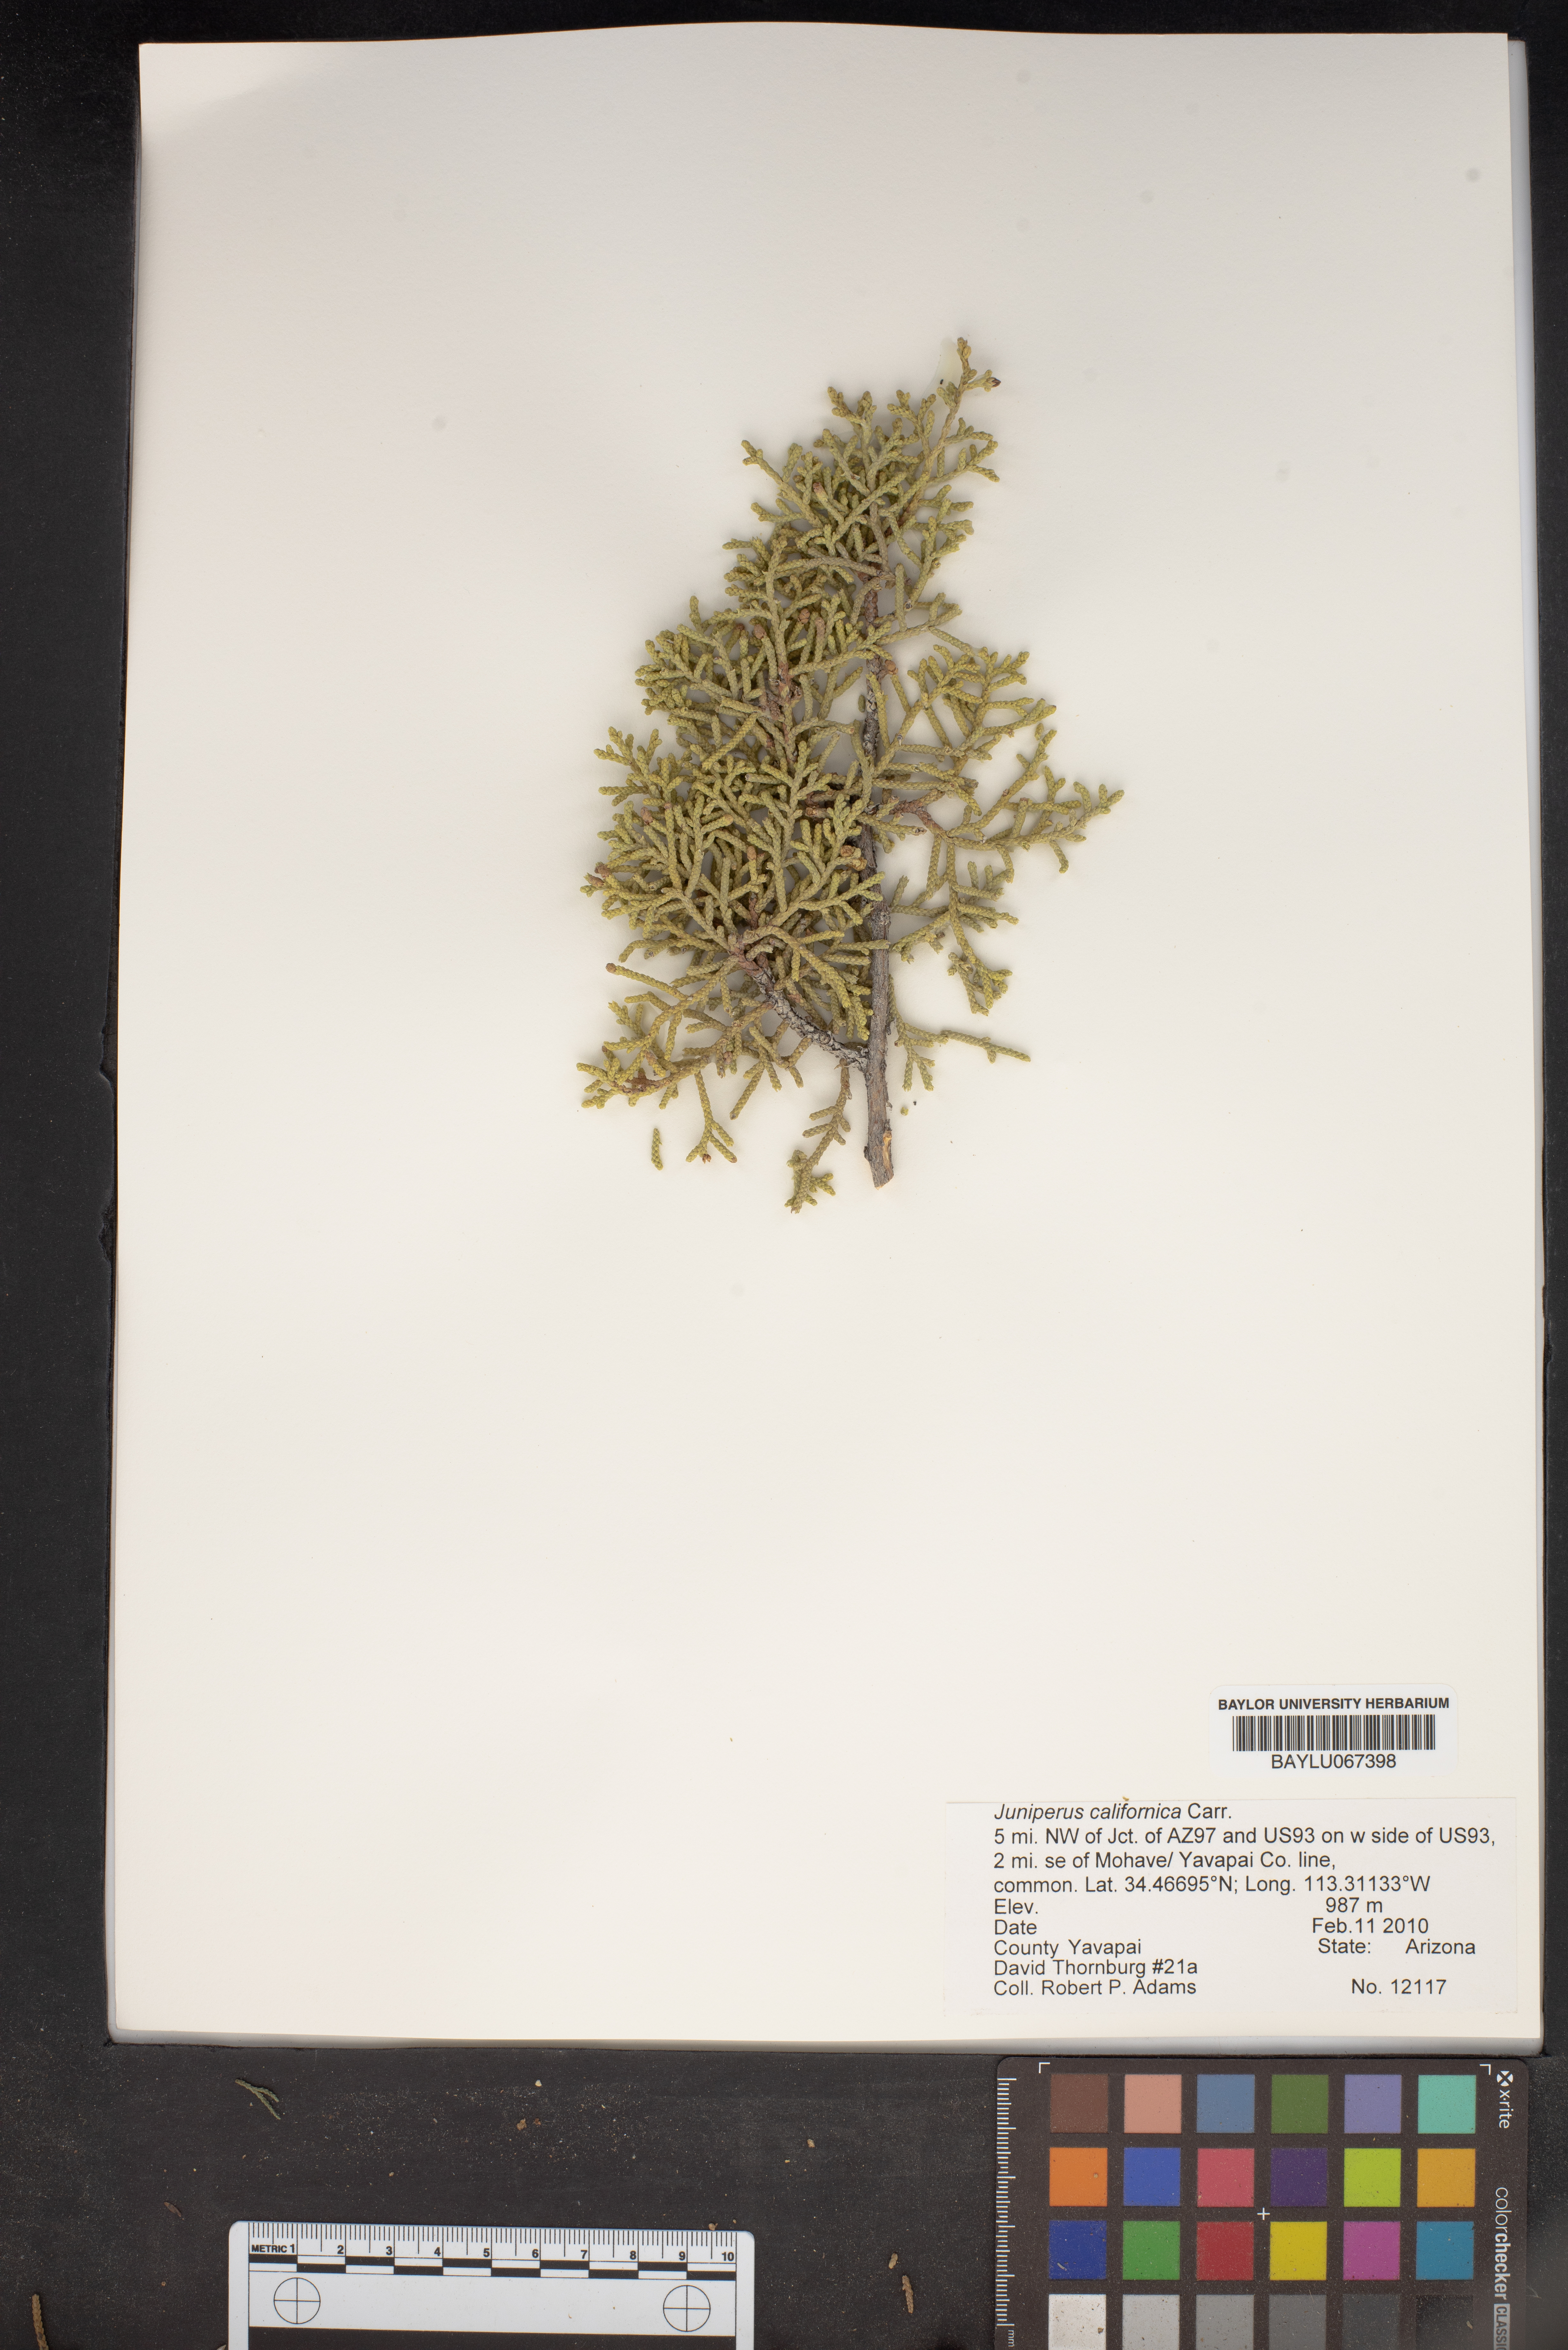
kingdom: Plantae
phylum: Tracheophyta
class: Pinopsida
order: Pinales
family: Cupressaceae
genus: Juniperus
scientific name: Juniperus californica
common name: California juniper
